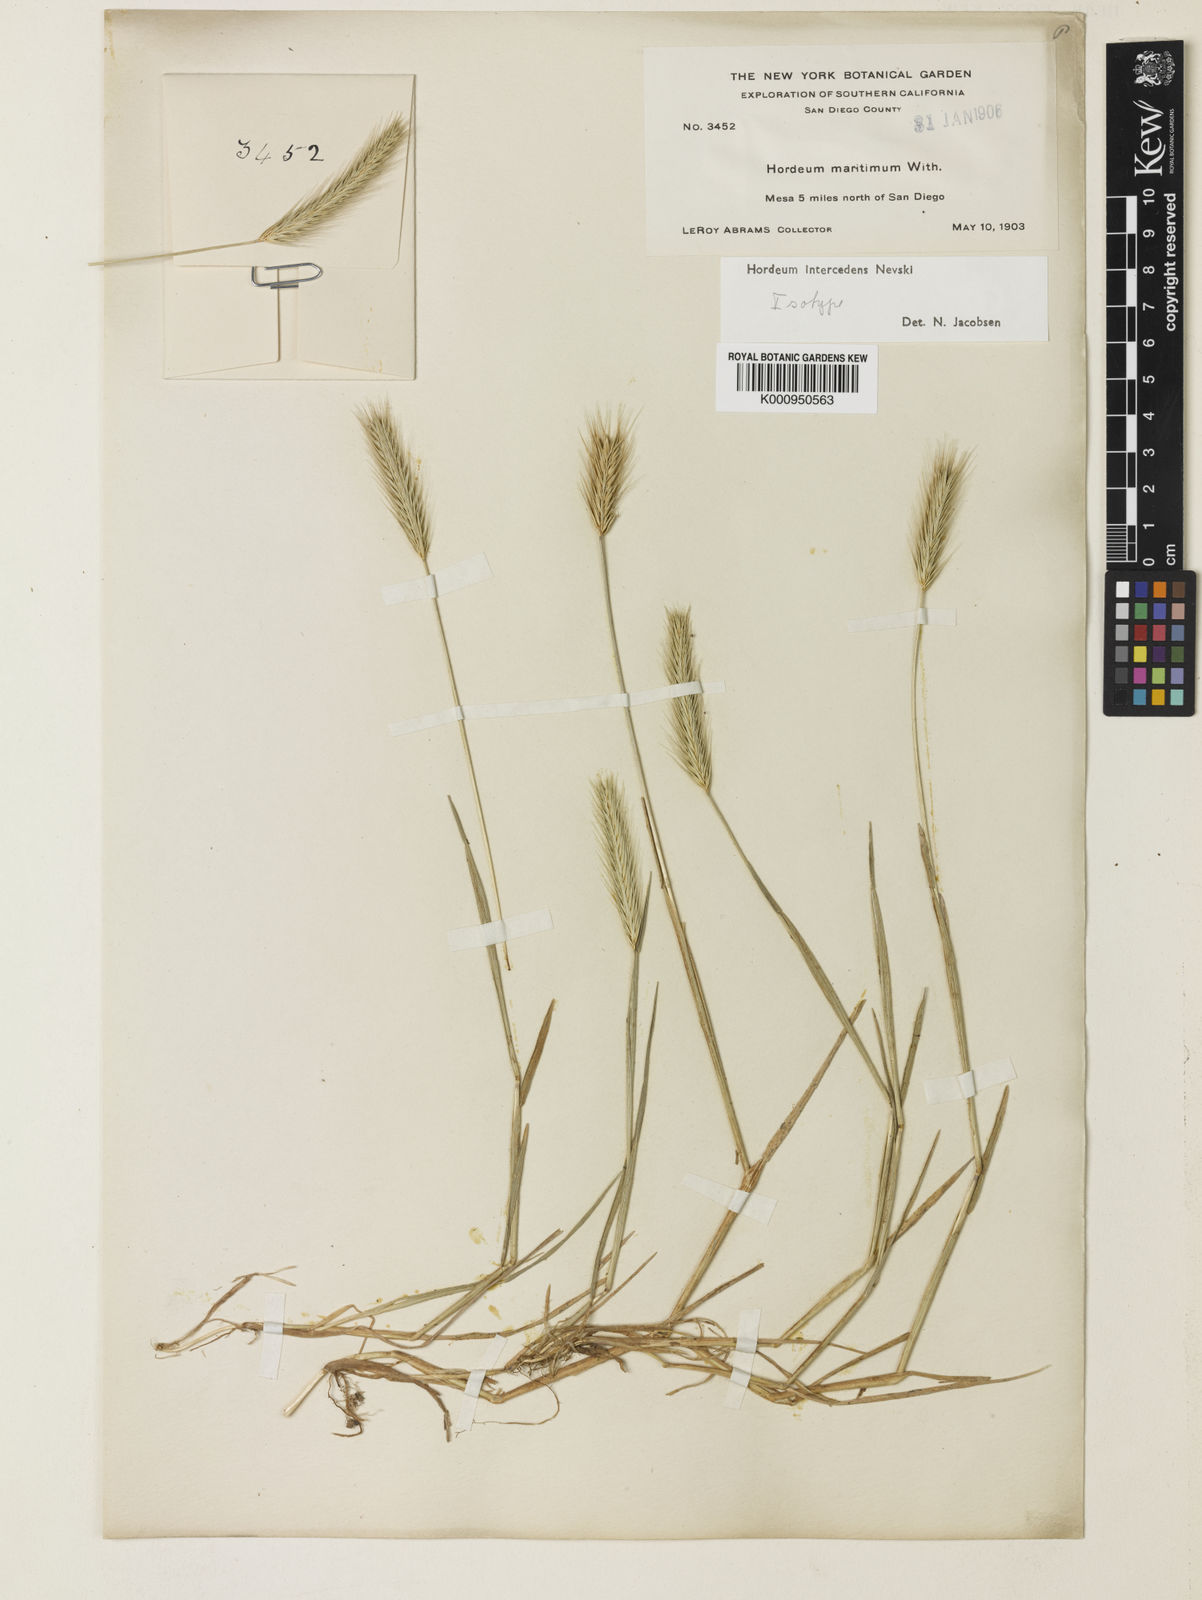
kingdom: Plantae
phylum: Tracheophyta
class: Liliopsida
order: Poales
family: Poaceae
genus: Hordeum
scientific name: Hordeum pusillum
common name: Little barley
